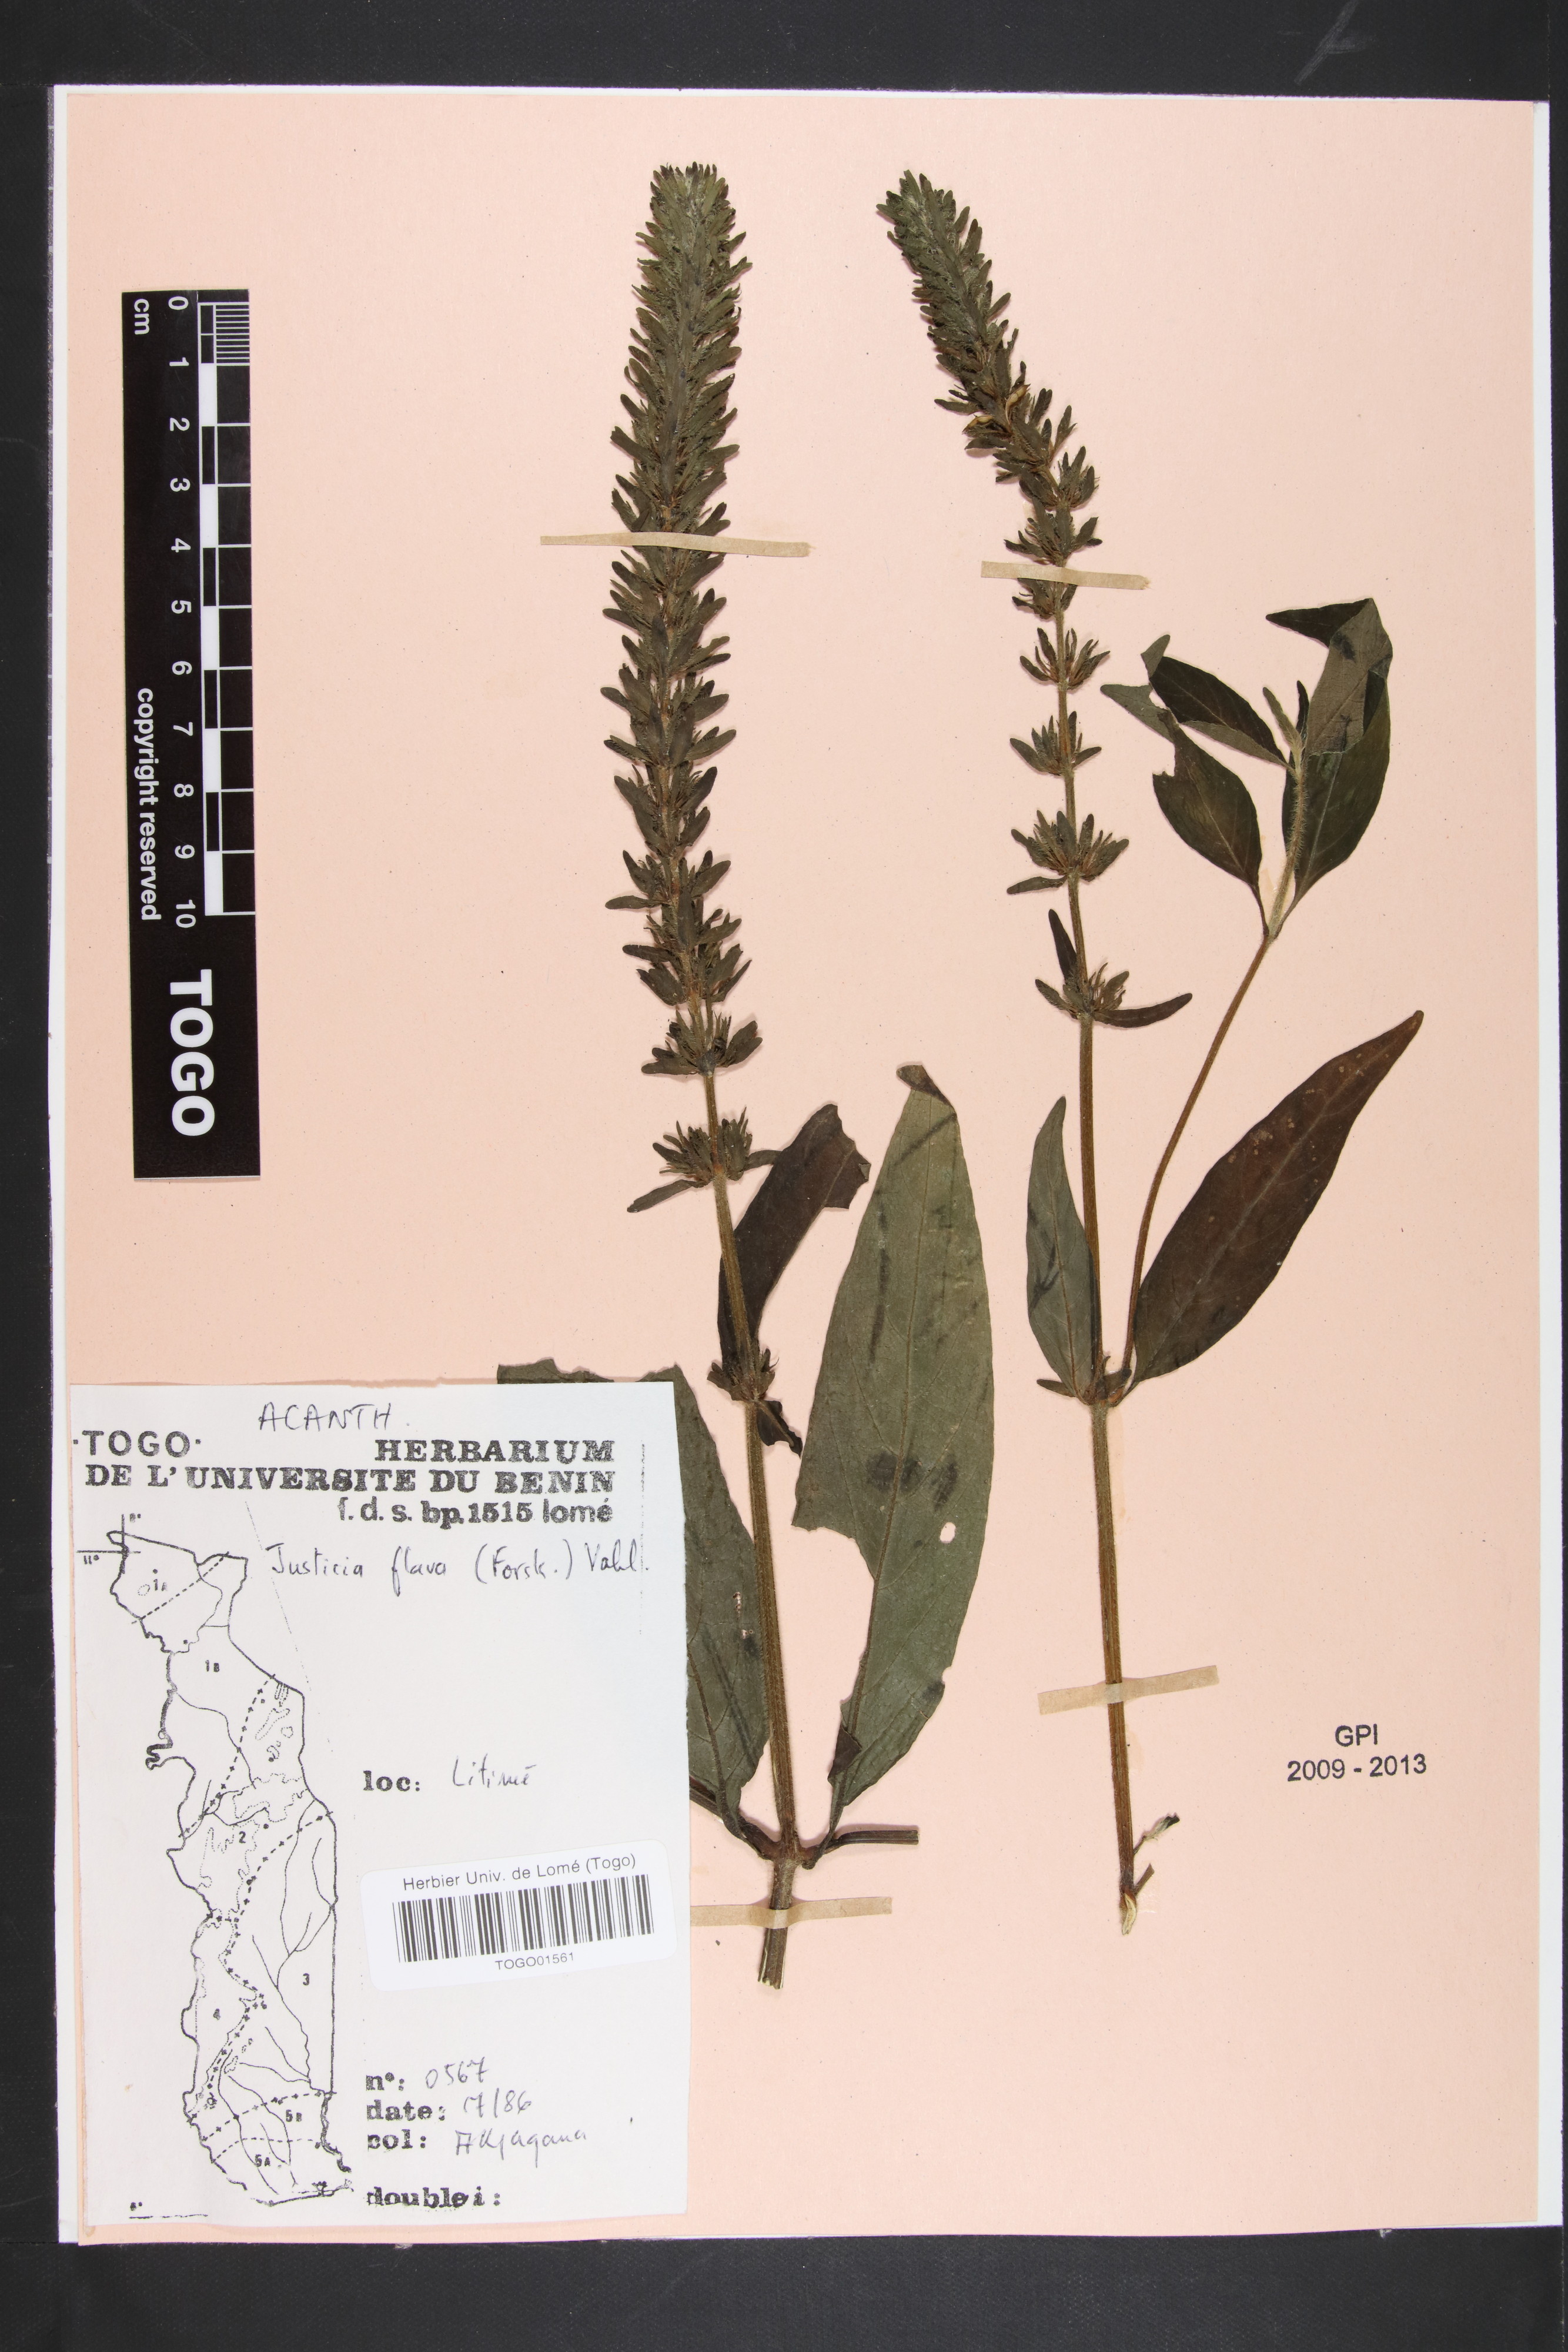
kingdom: Plantae
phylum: Tracheophyta
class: Magnoliopsida
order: Lamiales
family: Acanthaceae
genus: Justicia
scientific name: Justicia flava
